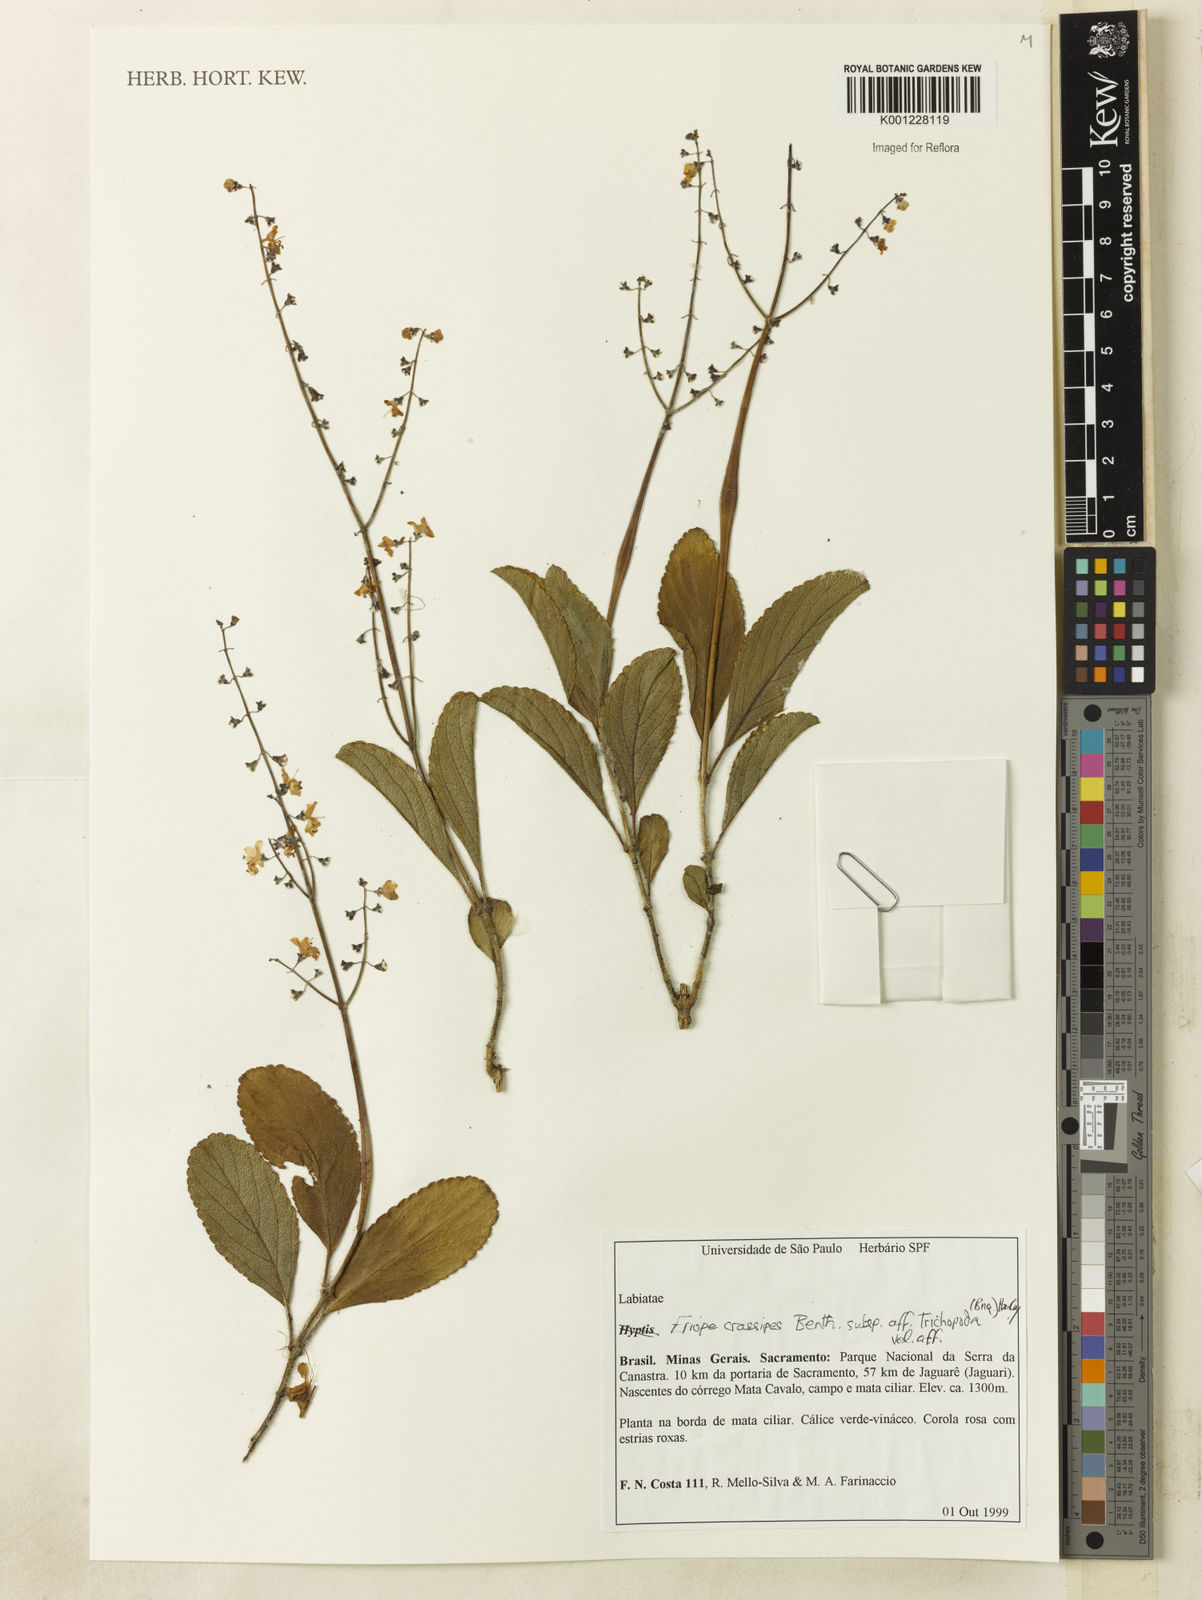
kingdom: Plantae
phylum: Tracheophyta
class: Magnoliopsida
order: Lamiales
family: Lamiaceae
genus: Eriope
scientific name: Eriope
